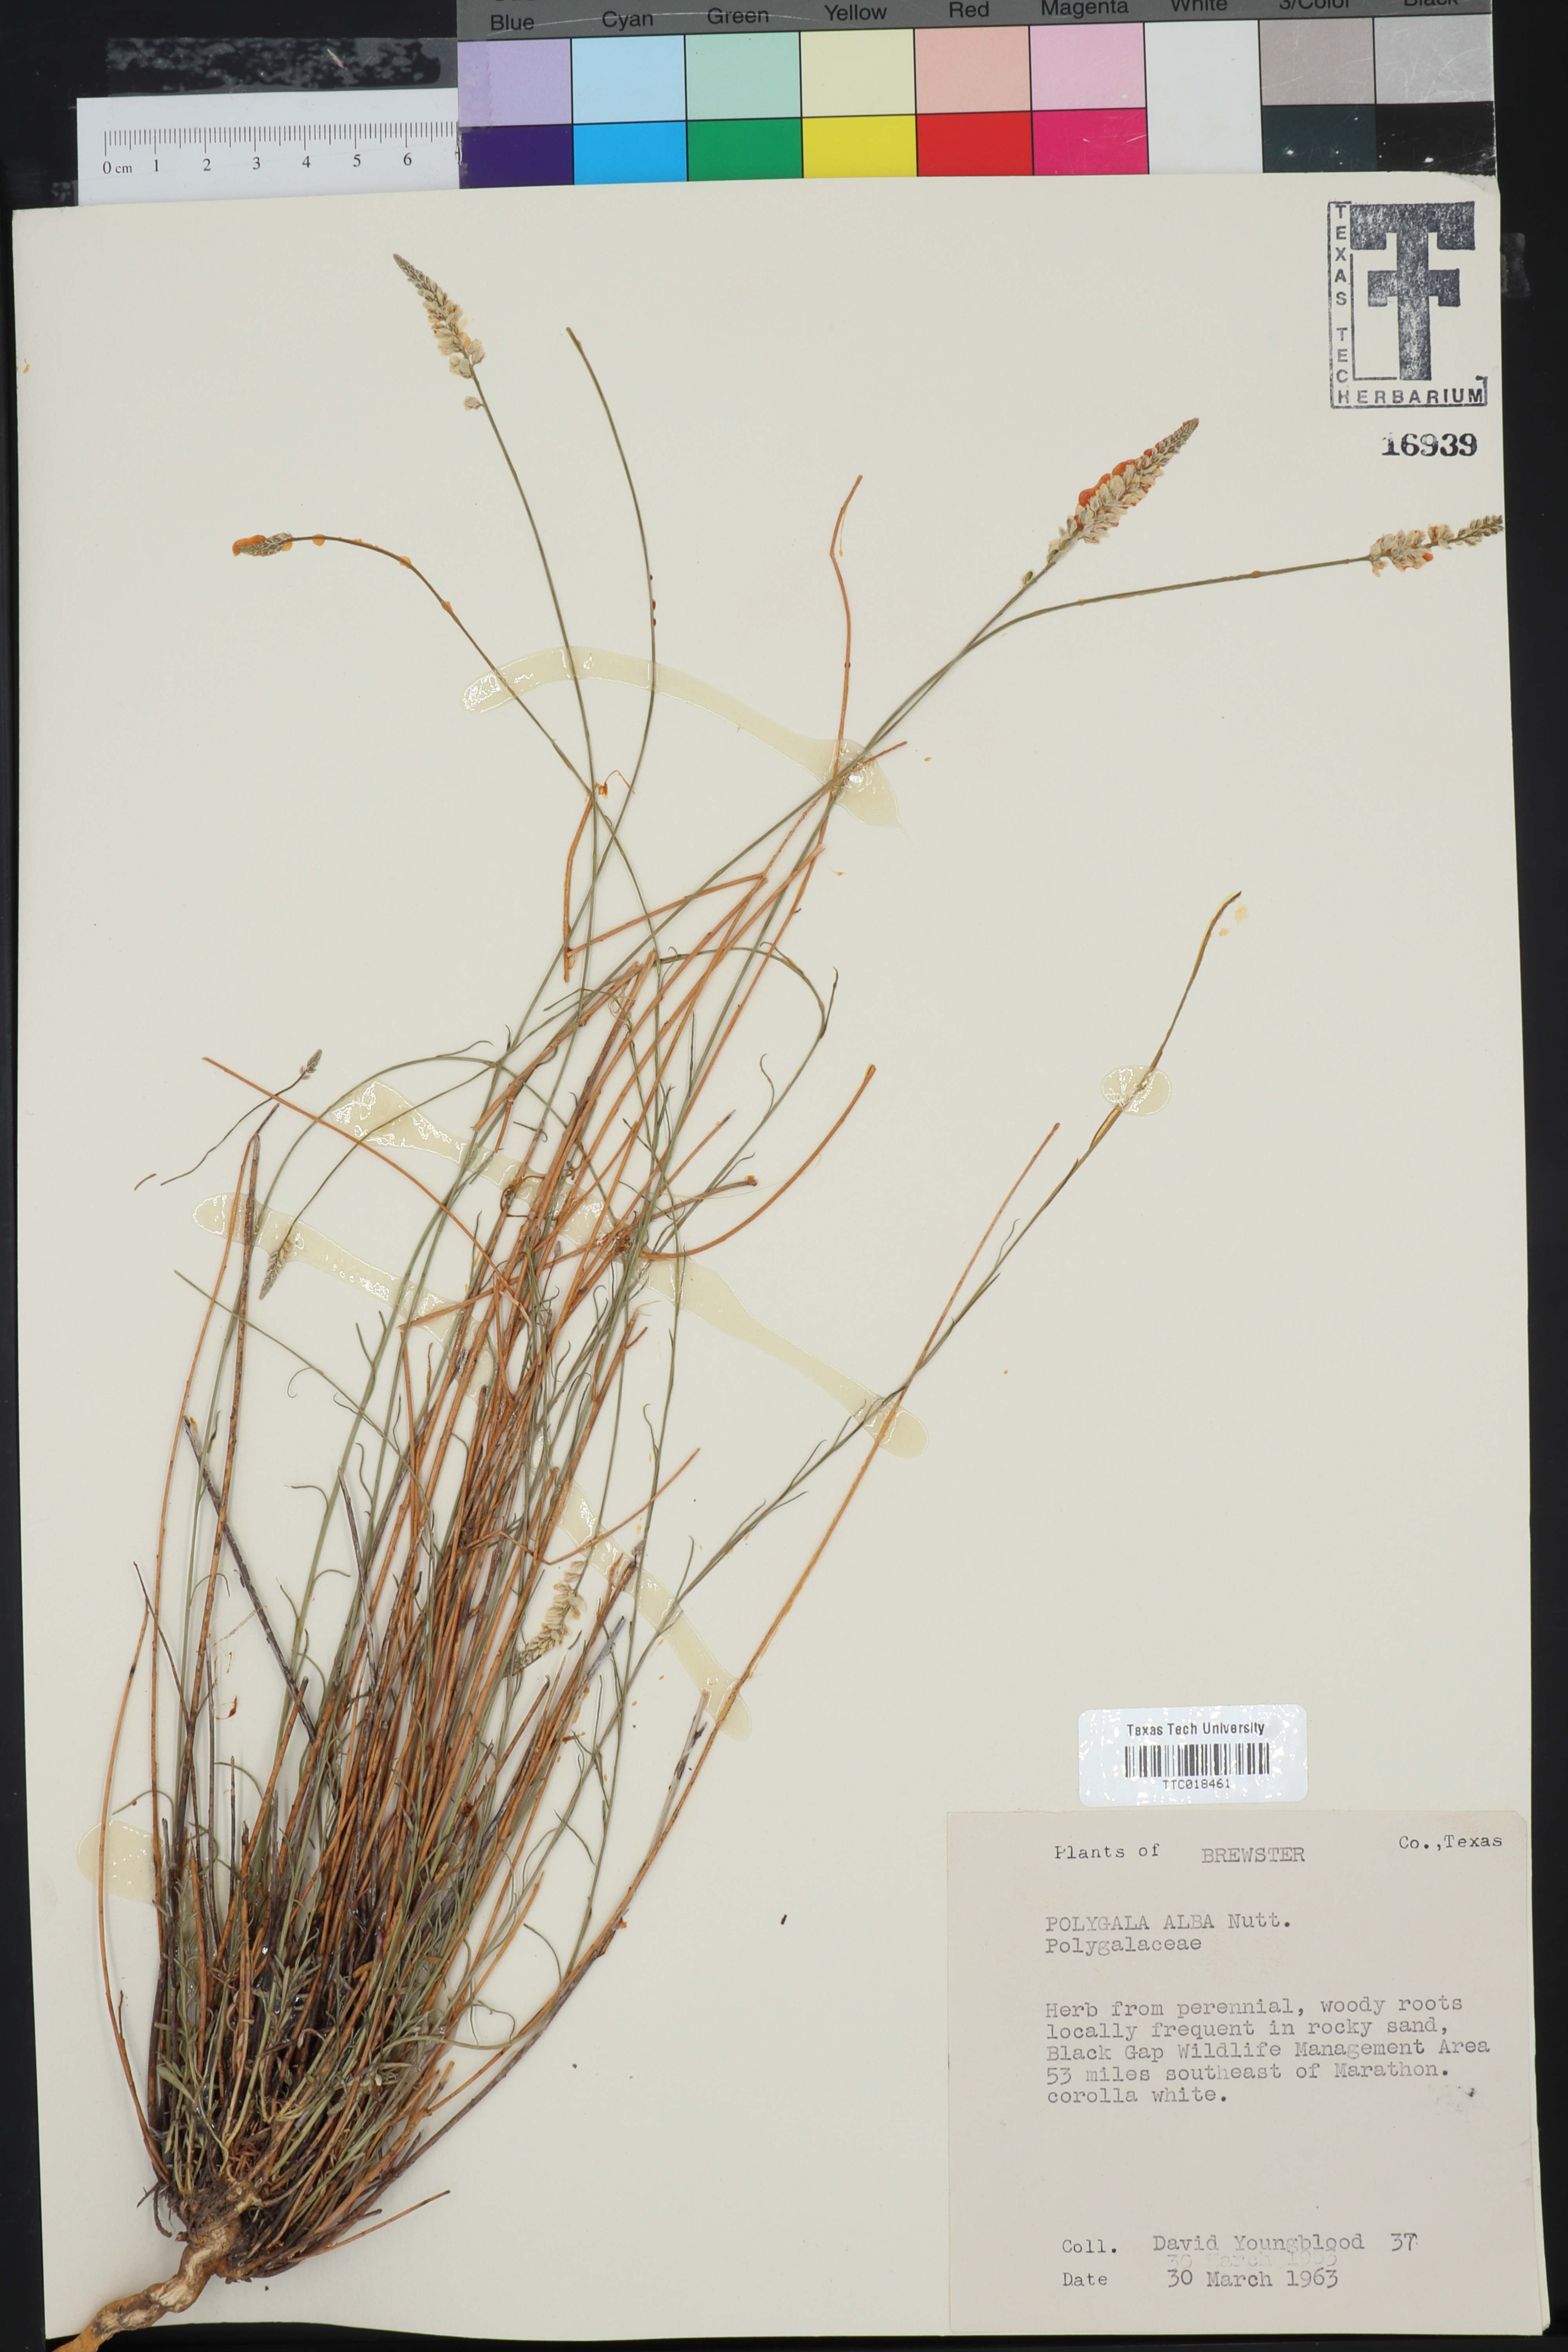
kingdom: Plantae
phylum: Tracheophyta
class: Magnoliopsida
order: Fabales
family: Polygalaceae
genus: Polygala
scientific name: Polygala alba
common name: White milkwort
